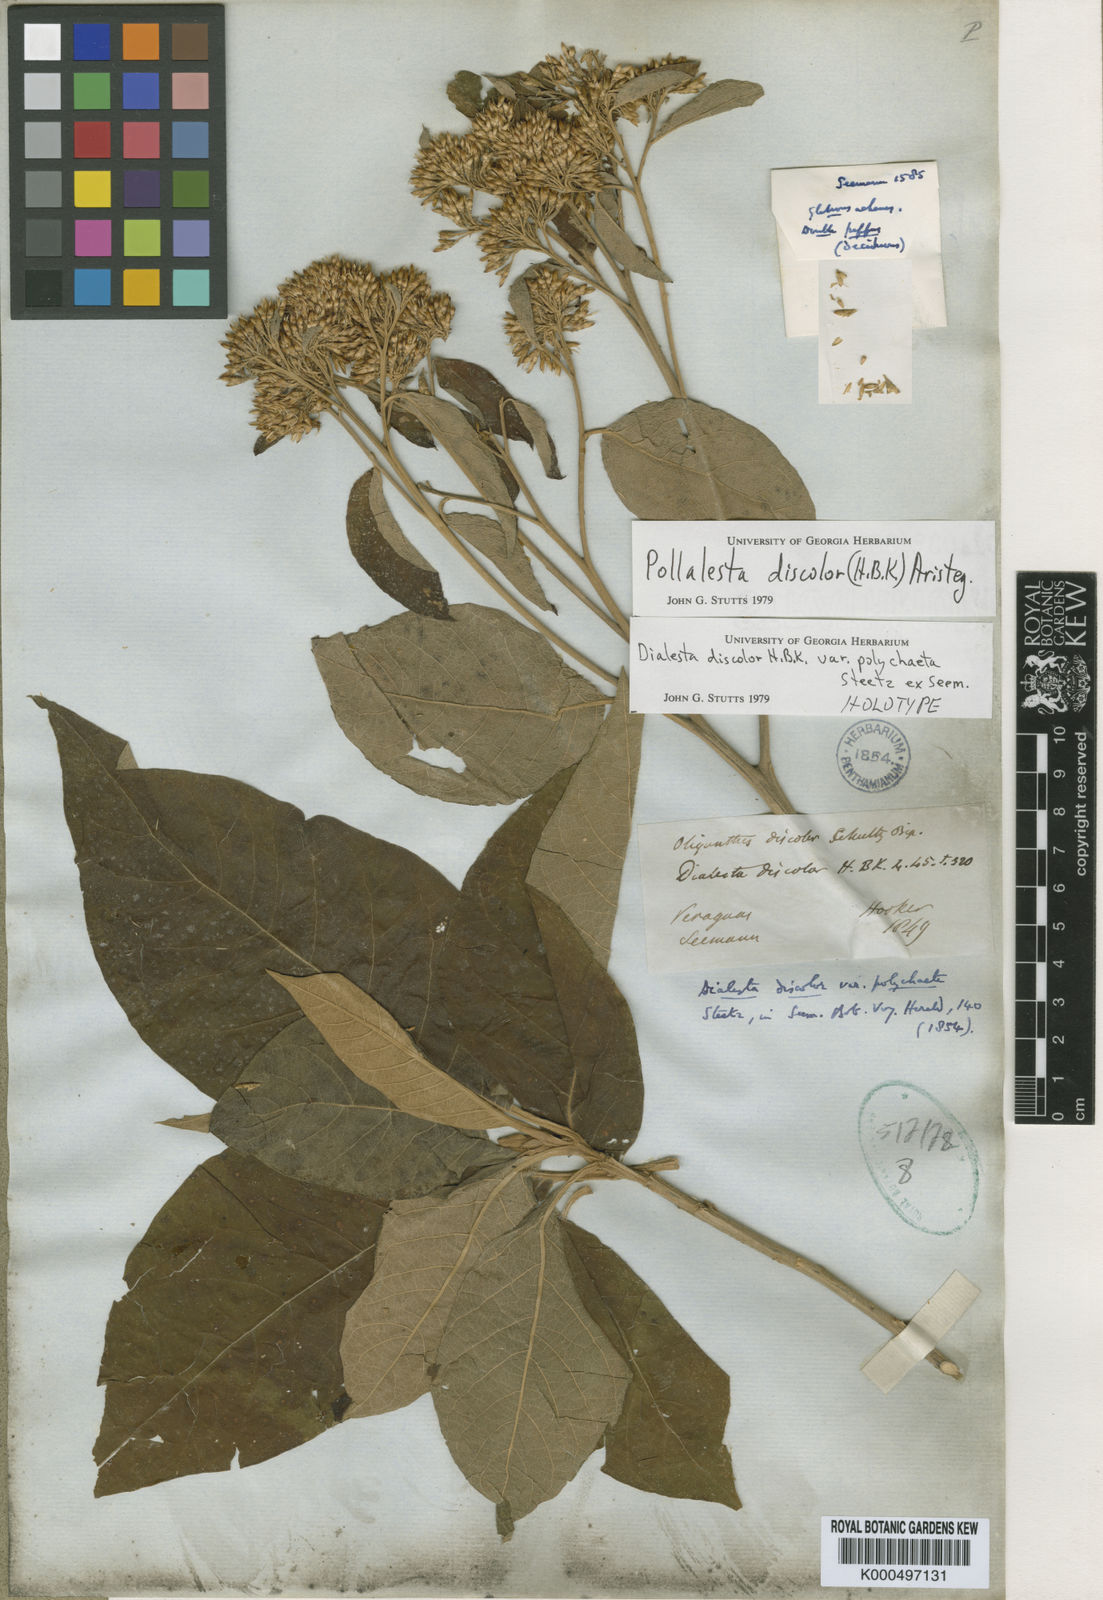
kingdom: Plantae
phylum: Tracheophyta
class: Magnoliopsida
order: Asterales
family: Asteraceae
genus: Piptocoma
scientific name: Piptocoma discolor
